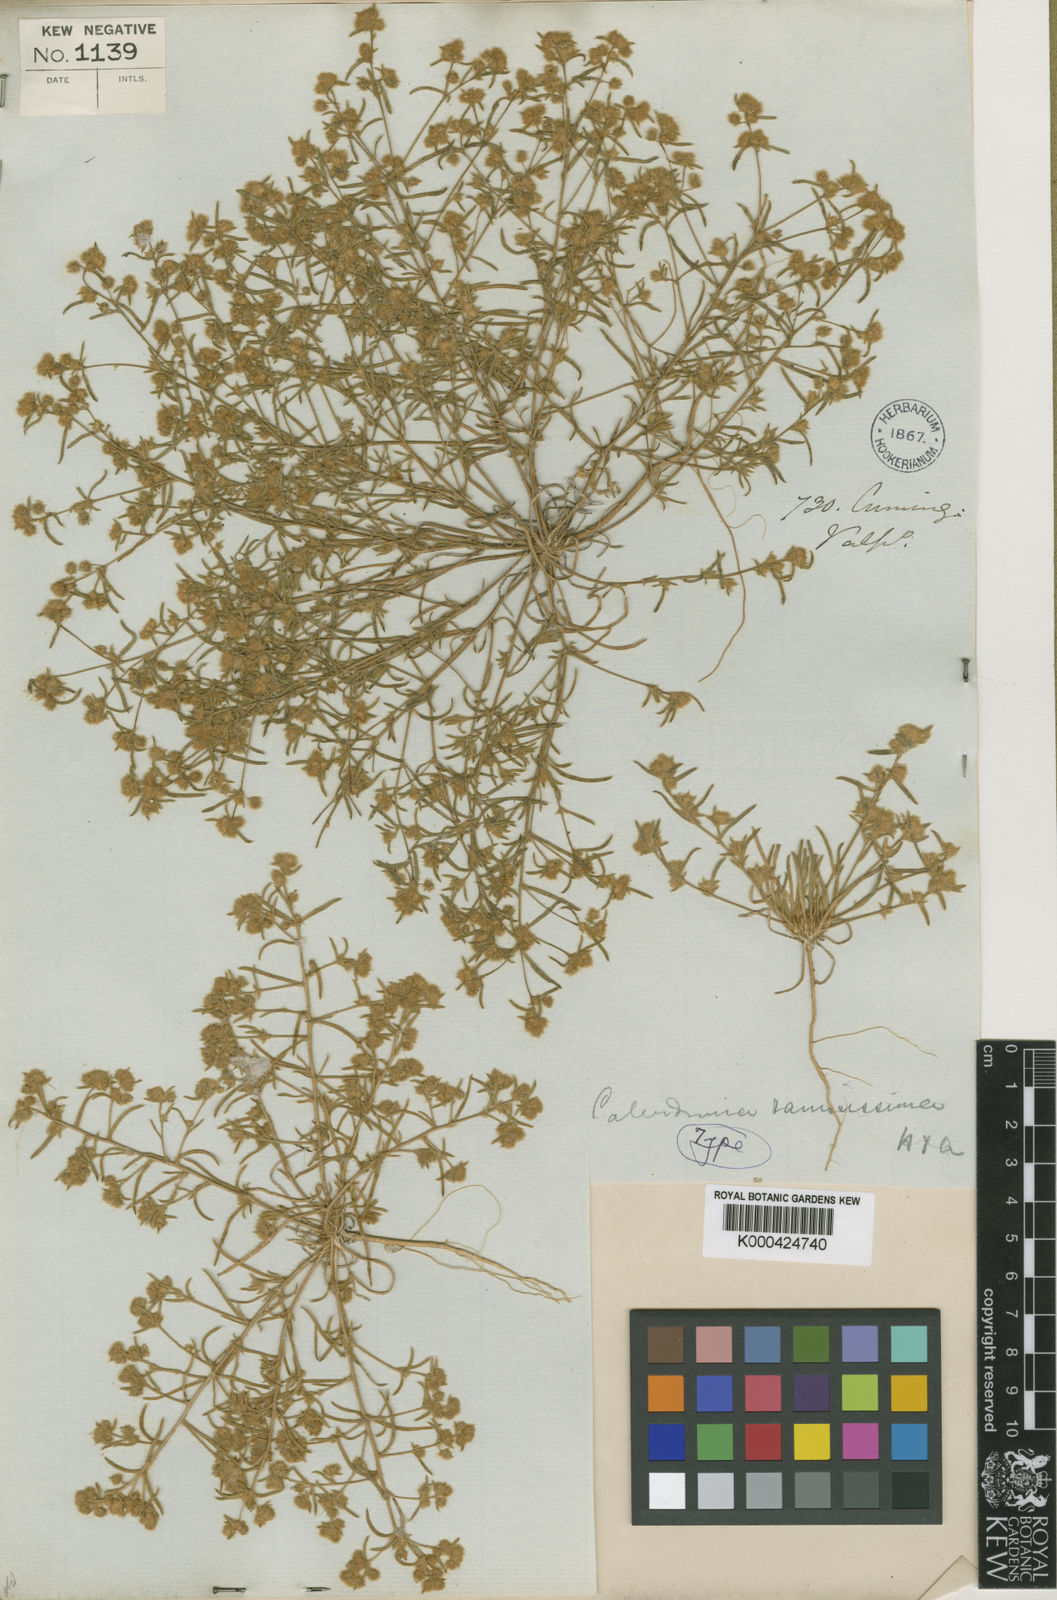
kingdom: Plantae
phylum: Tracheophyta
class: Magnoliopsida
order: Caryophyllales
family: Montiaceae
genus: Montiopsis
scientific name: Montiopsis ramosissima
